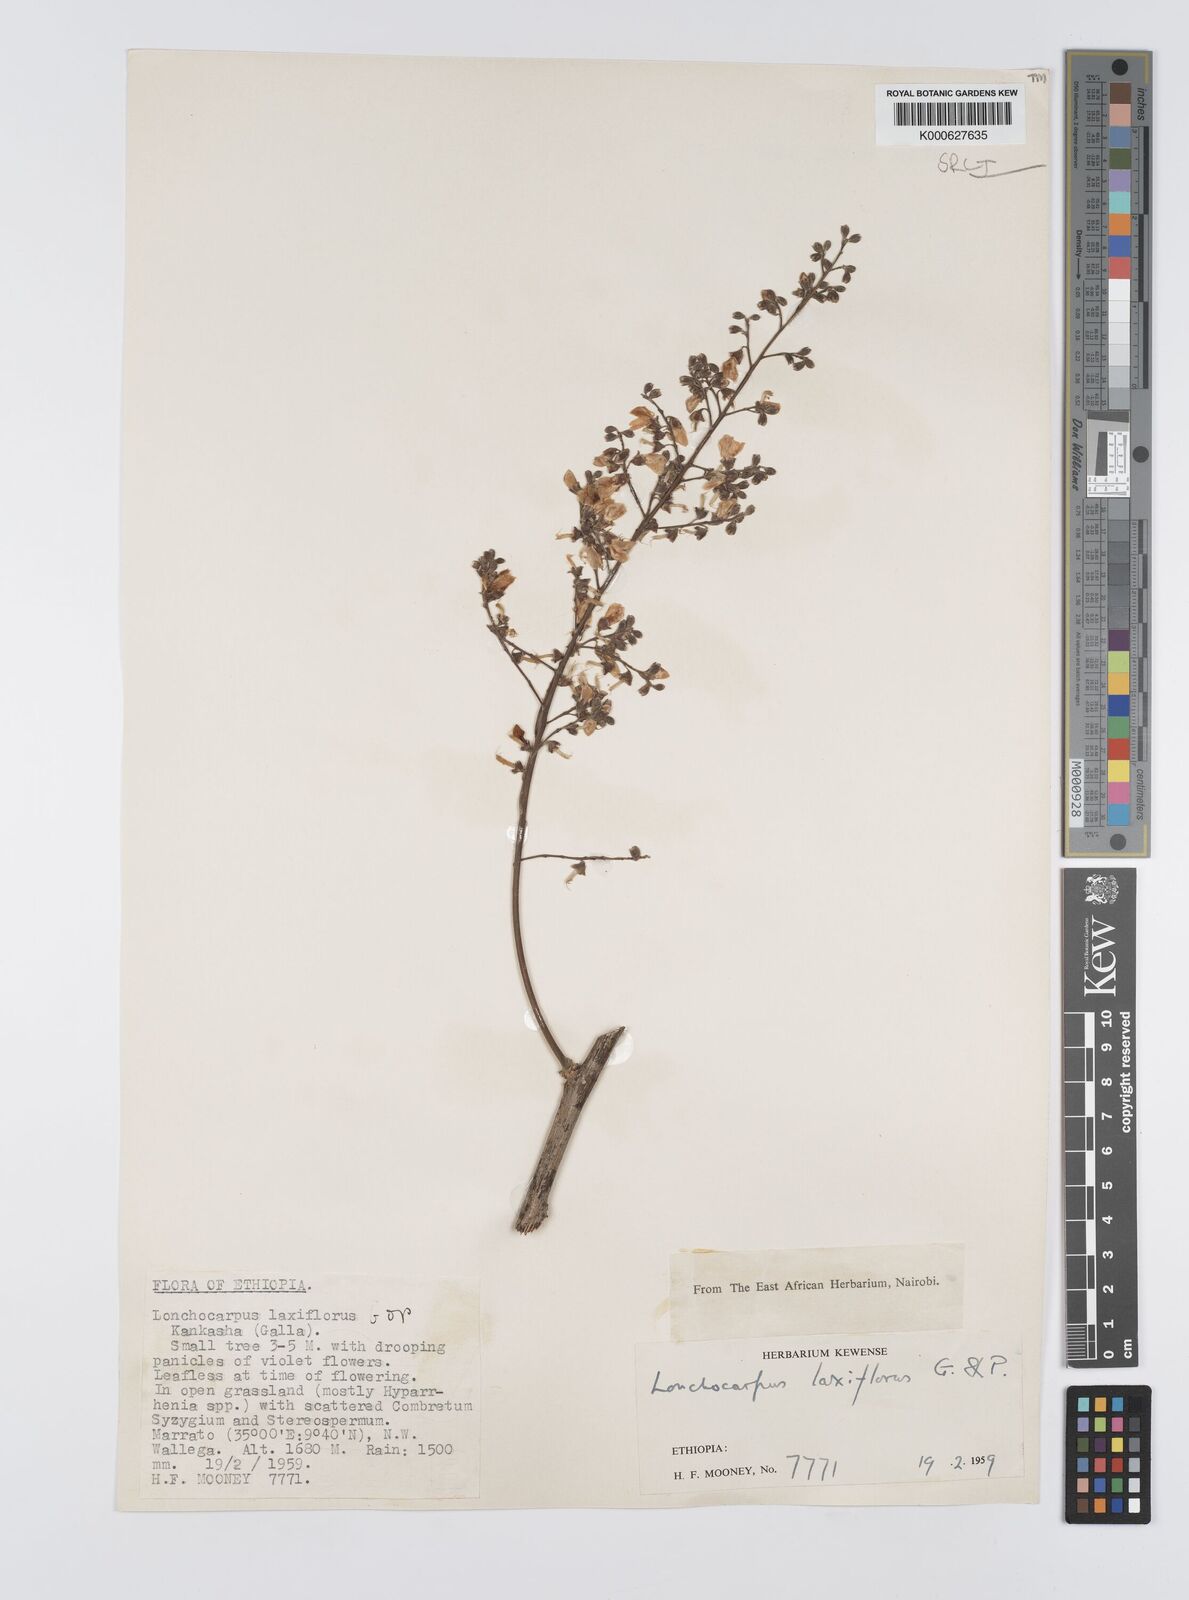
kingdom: Plantae
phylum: Tracheophyta
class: Magnoliopsida
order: Fabales
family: Fabaceae
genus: Philenoptera
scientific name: Philenoptera laxiflora
